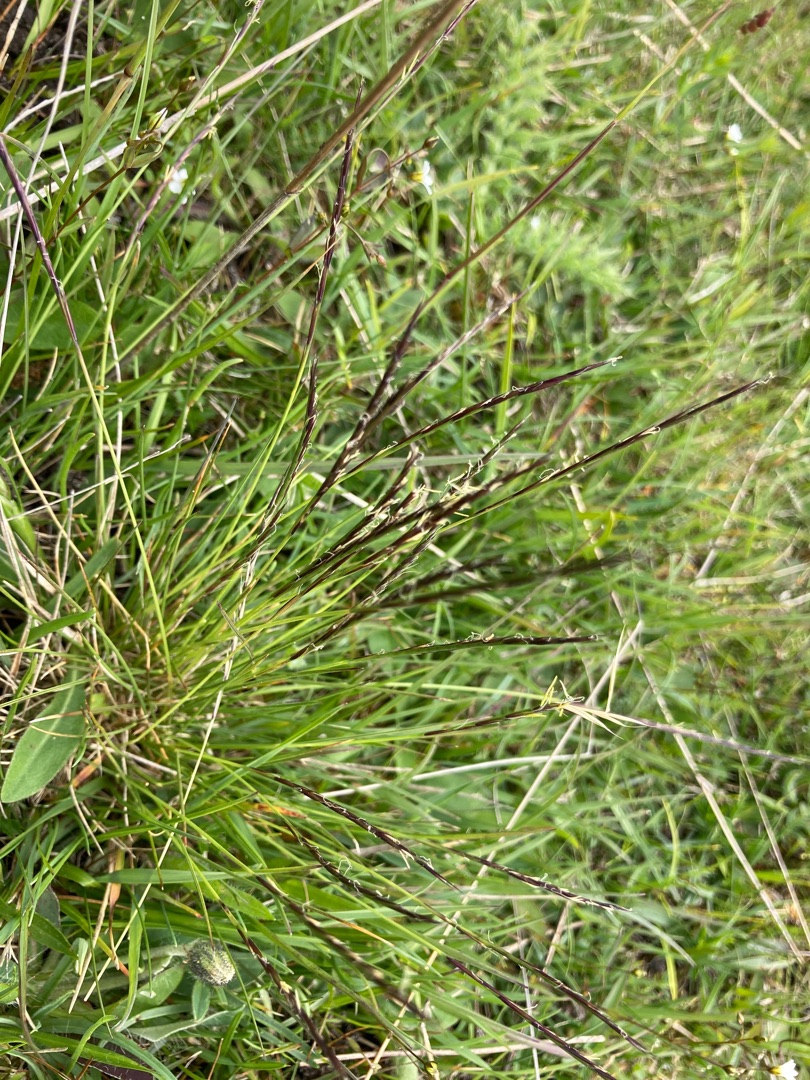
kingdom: Plantae
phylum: Tracheophyta
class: Liliopsida
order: Poales
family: Poaceae
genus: Nardus
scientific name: Nardus stricta
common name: Katteskæg
